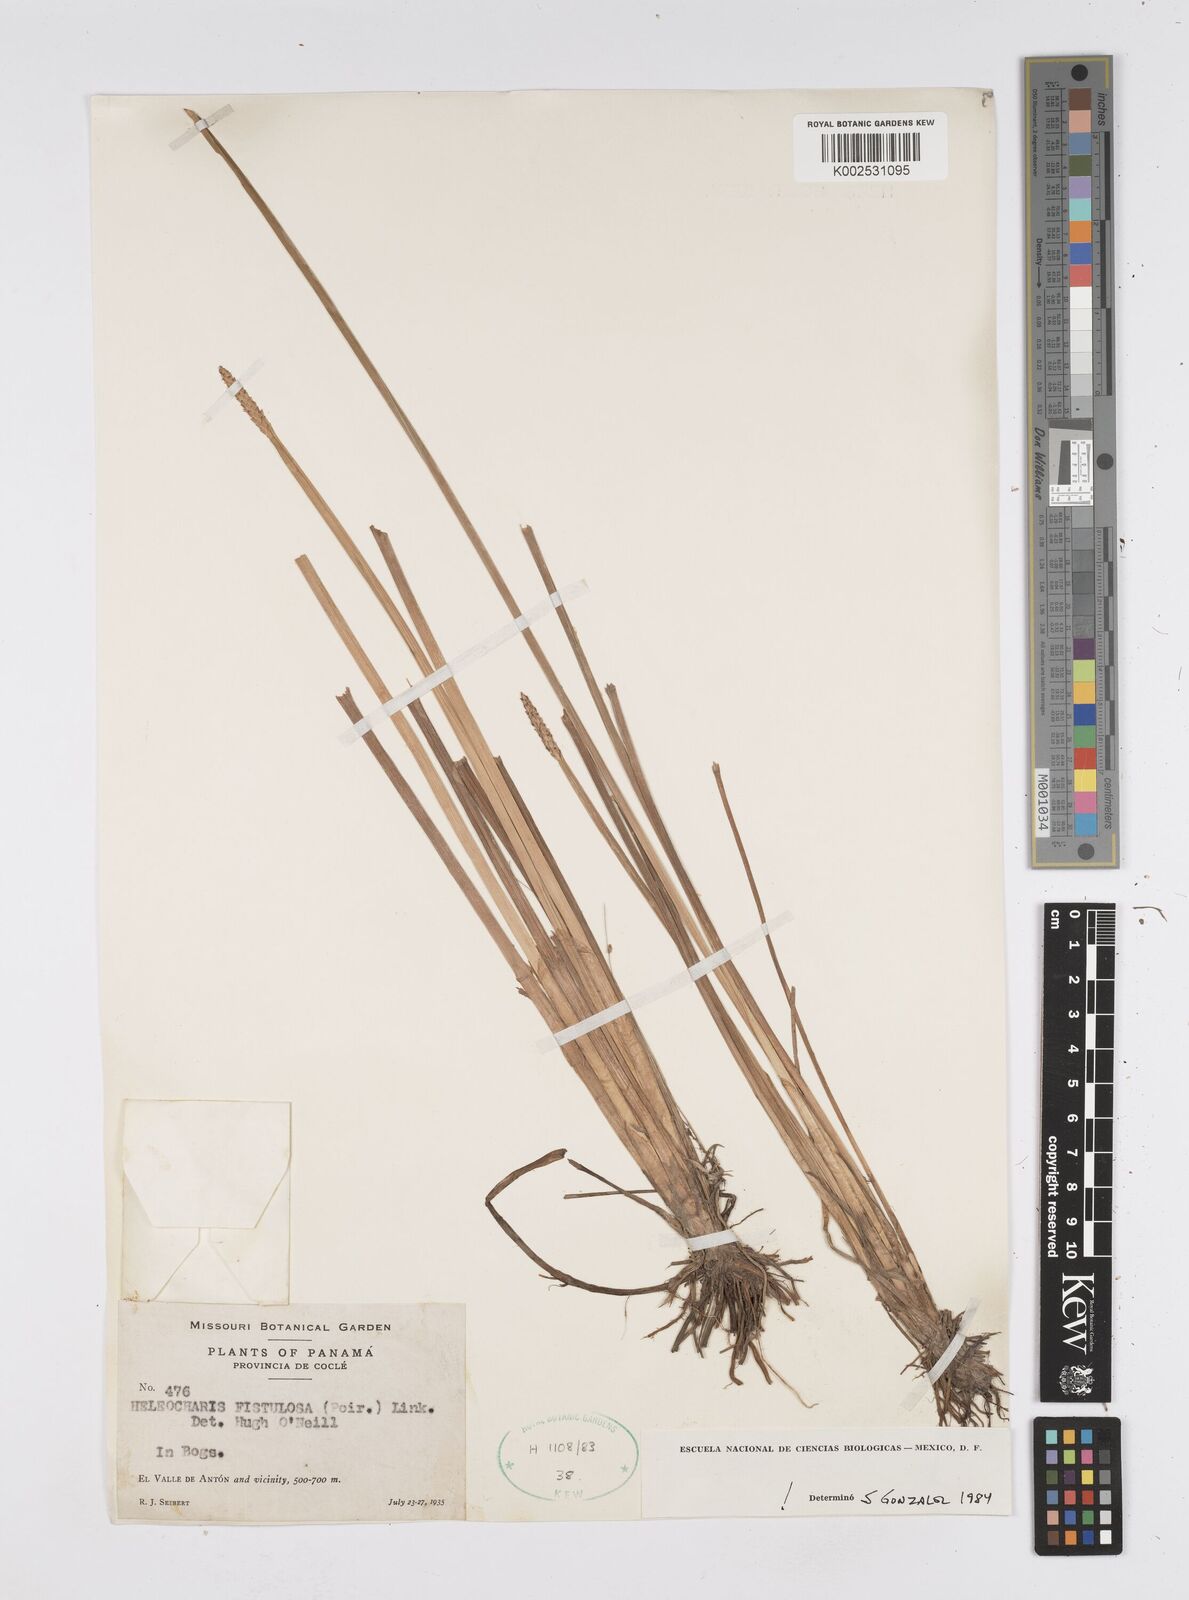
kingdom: Plantae
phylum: Tracheophyta
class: Liliopsida
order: Poales
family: Cyperaceae
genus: Eleocharis
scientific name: Eleocharis acutangula
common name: Acute spikerush
